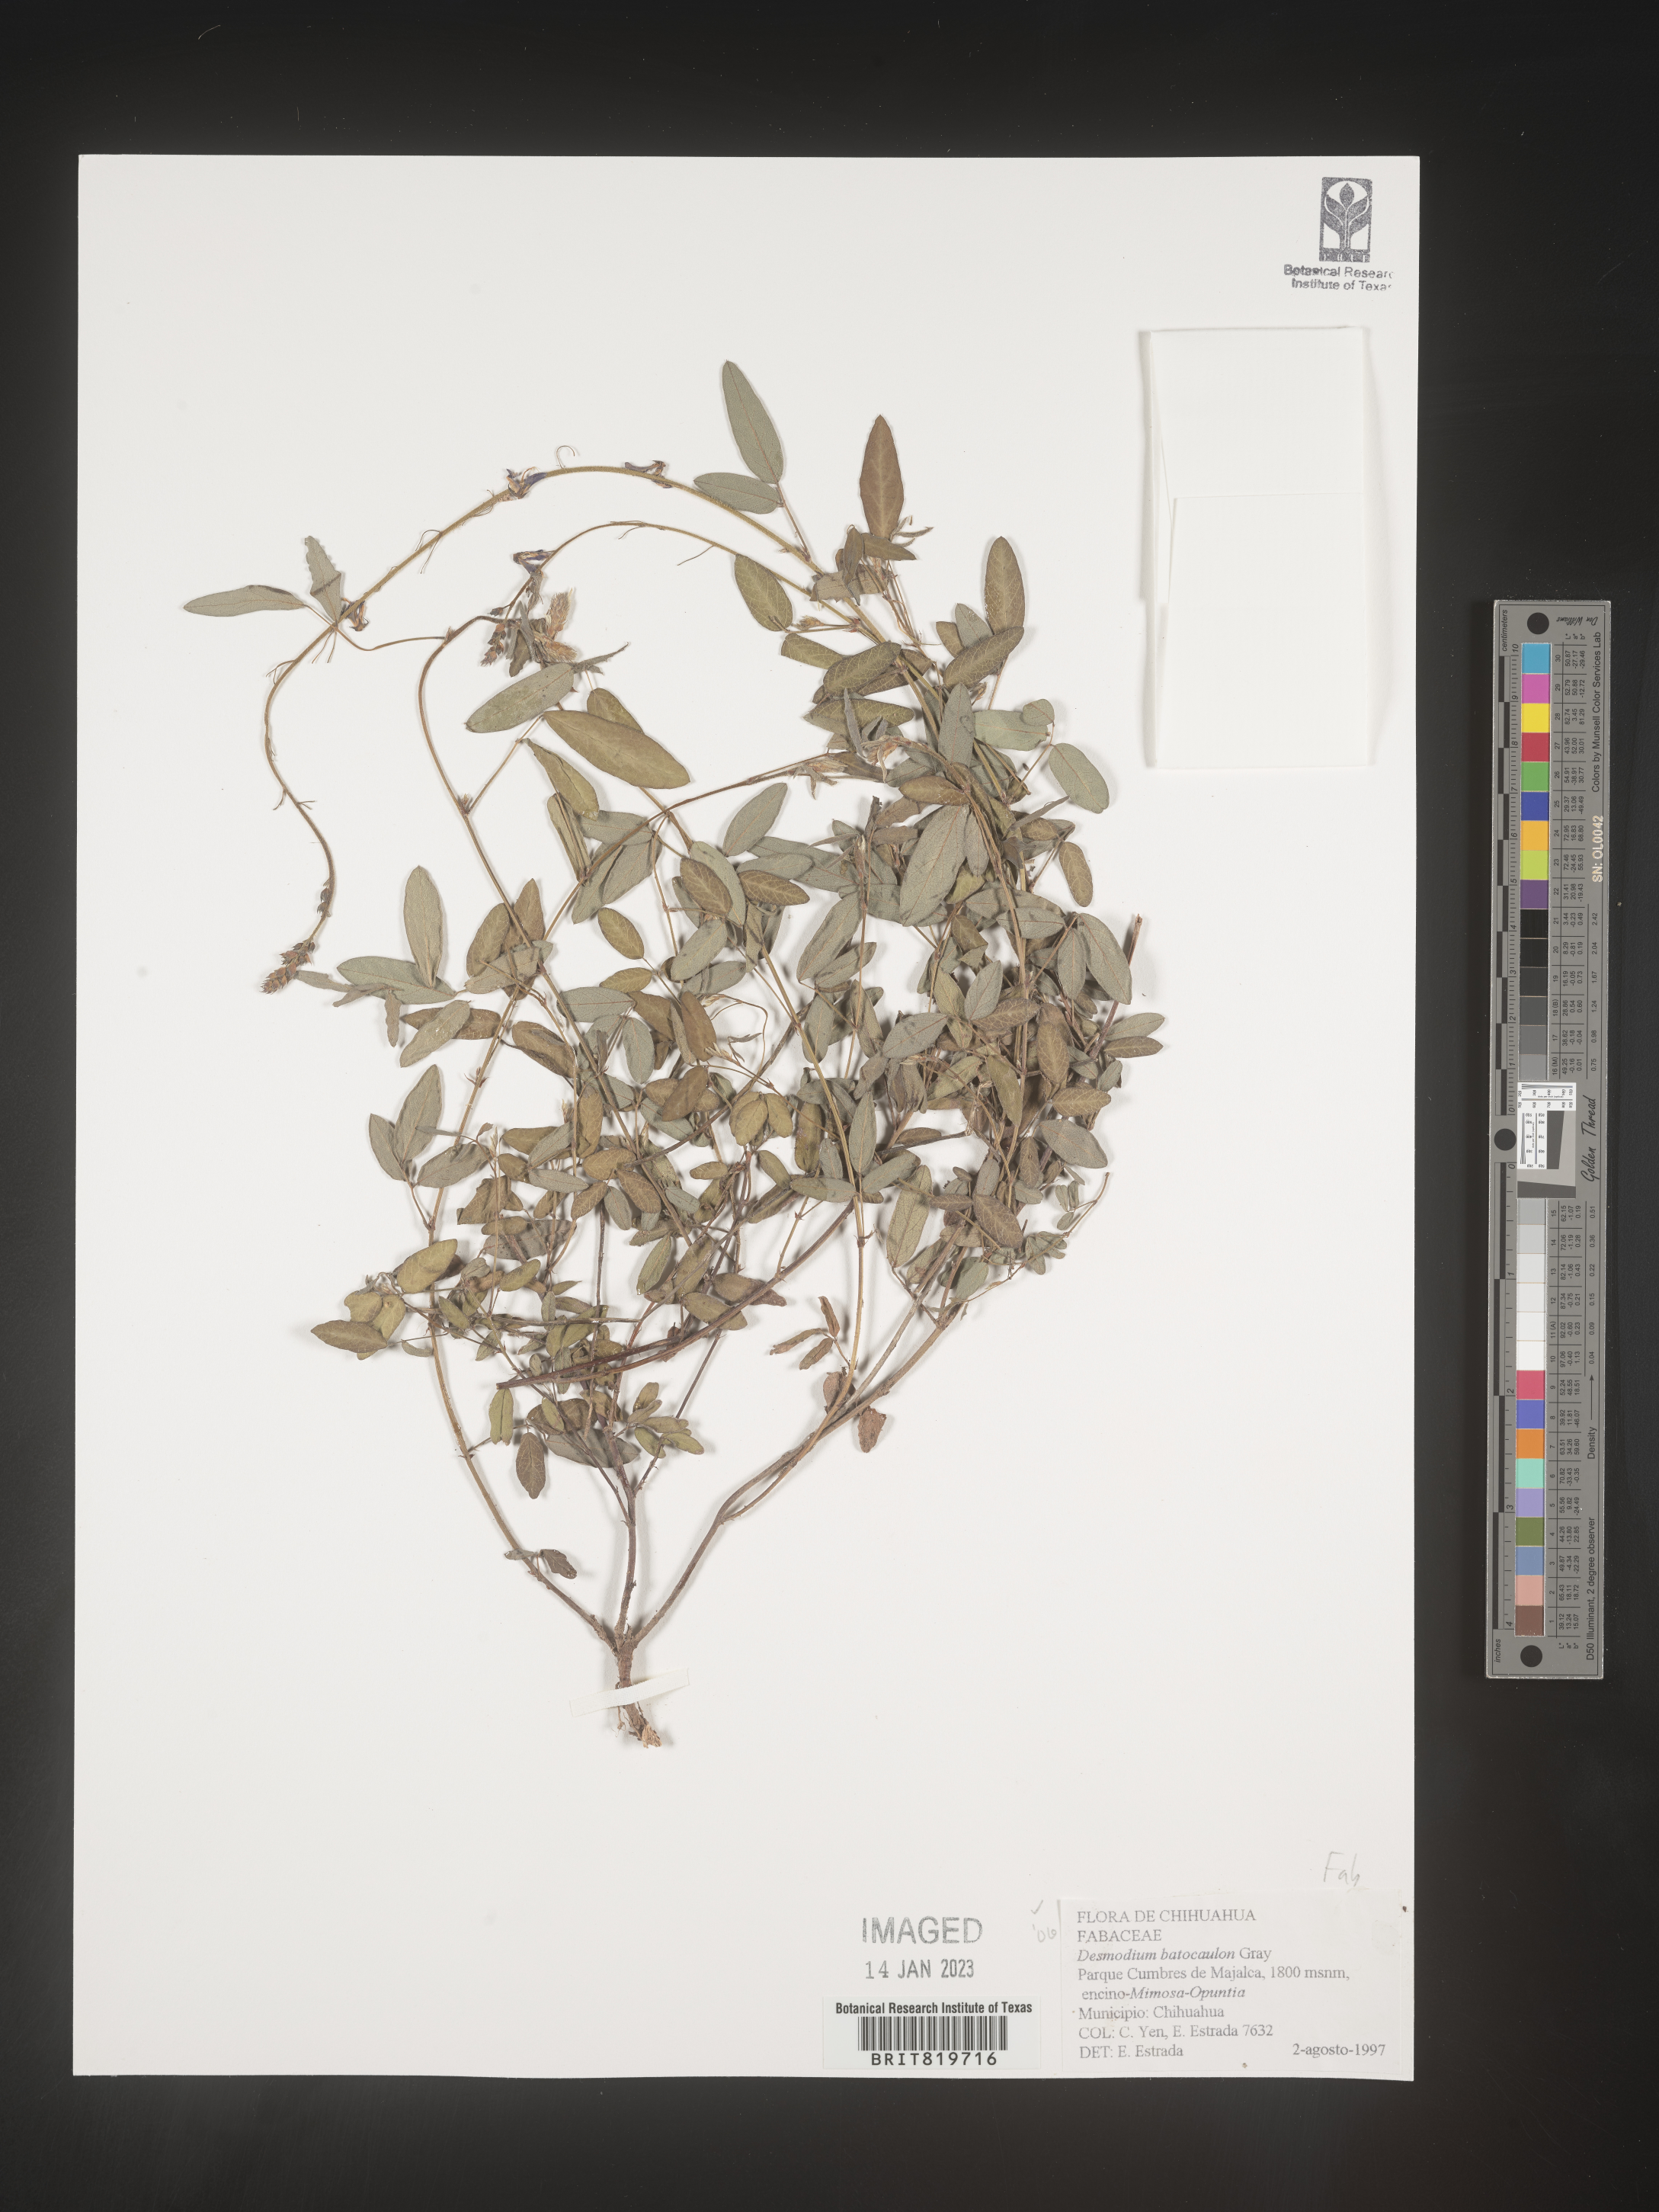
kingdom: Plantae
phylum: Tracheophyta
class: Magnoliopsida
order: Fabales
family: Fabaceae
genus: Desmodium
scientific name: Desmodium
